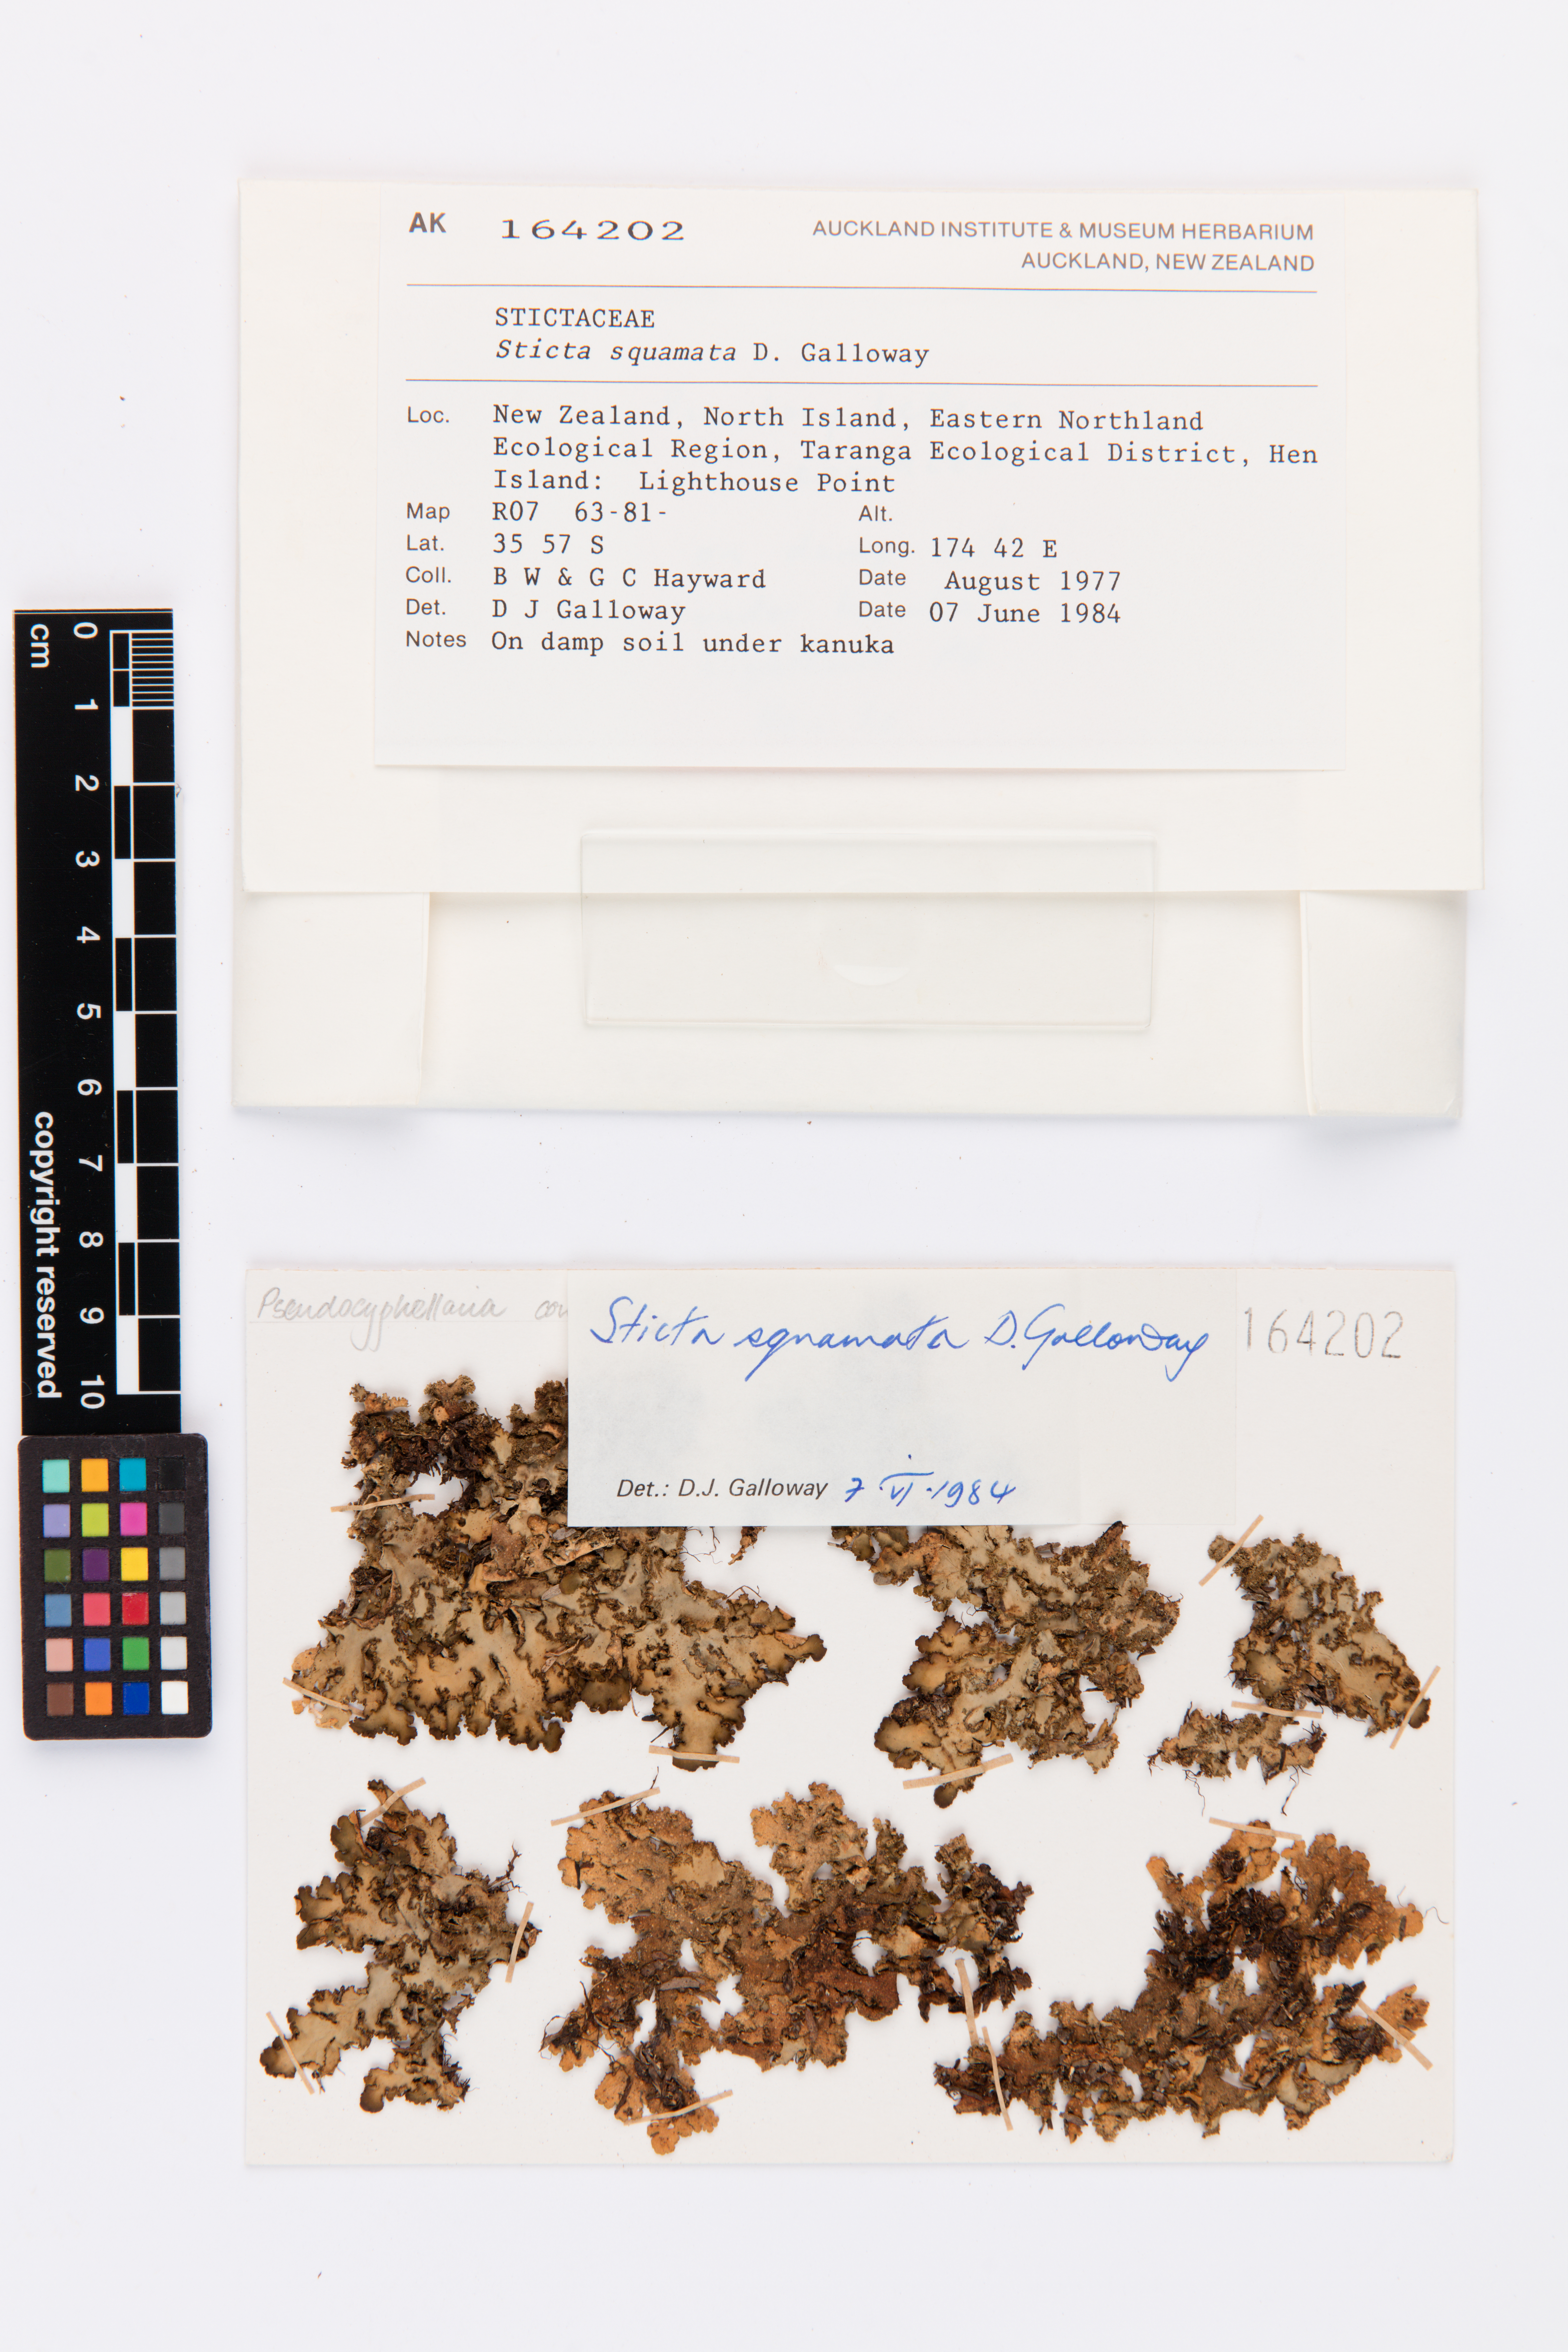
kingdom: Fungi
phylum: Ascomycota
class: Lecanoromycetes
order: Peltigerales
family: Lobariaceae
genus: Sticta
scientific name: Sticta squamata
